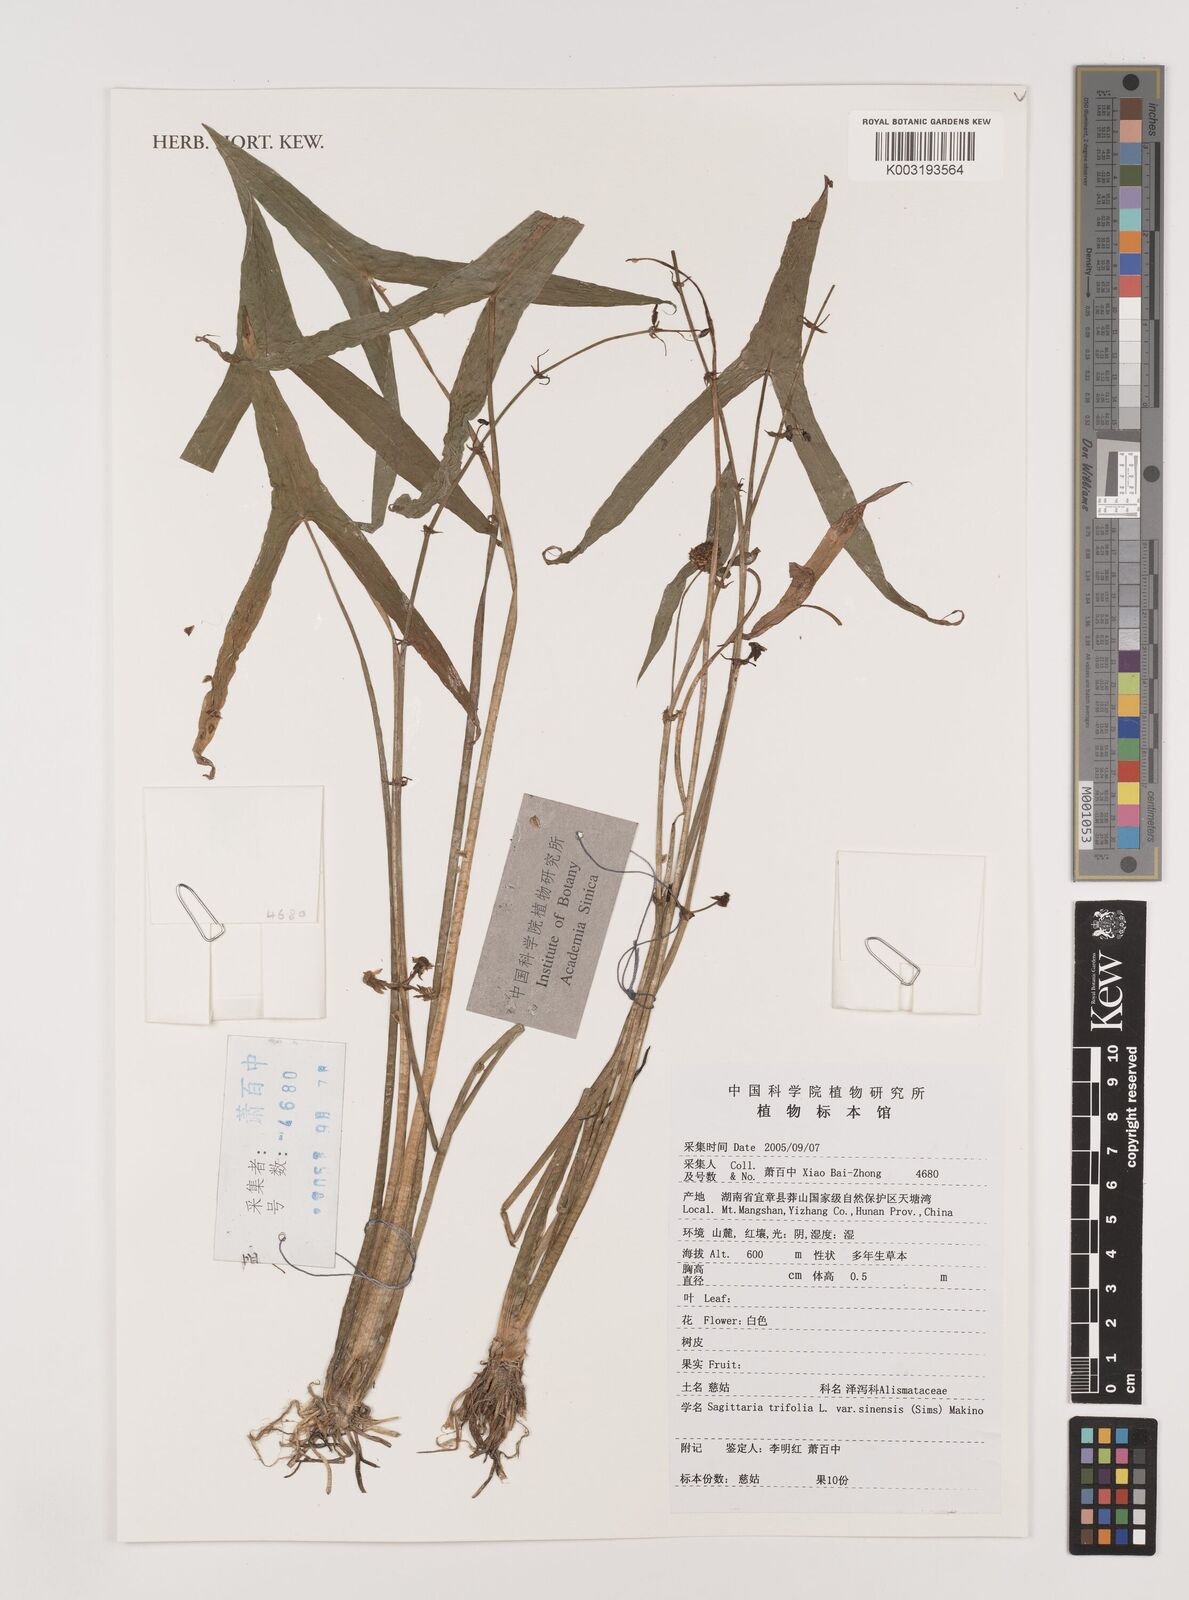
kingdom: Plantae
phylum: Tracheophyta
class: Liliopsida
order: Alismatales
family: Alismataceae
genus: Sagittaria
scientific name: Sagittaria trifolia
